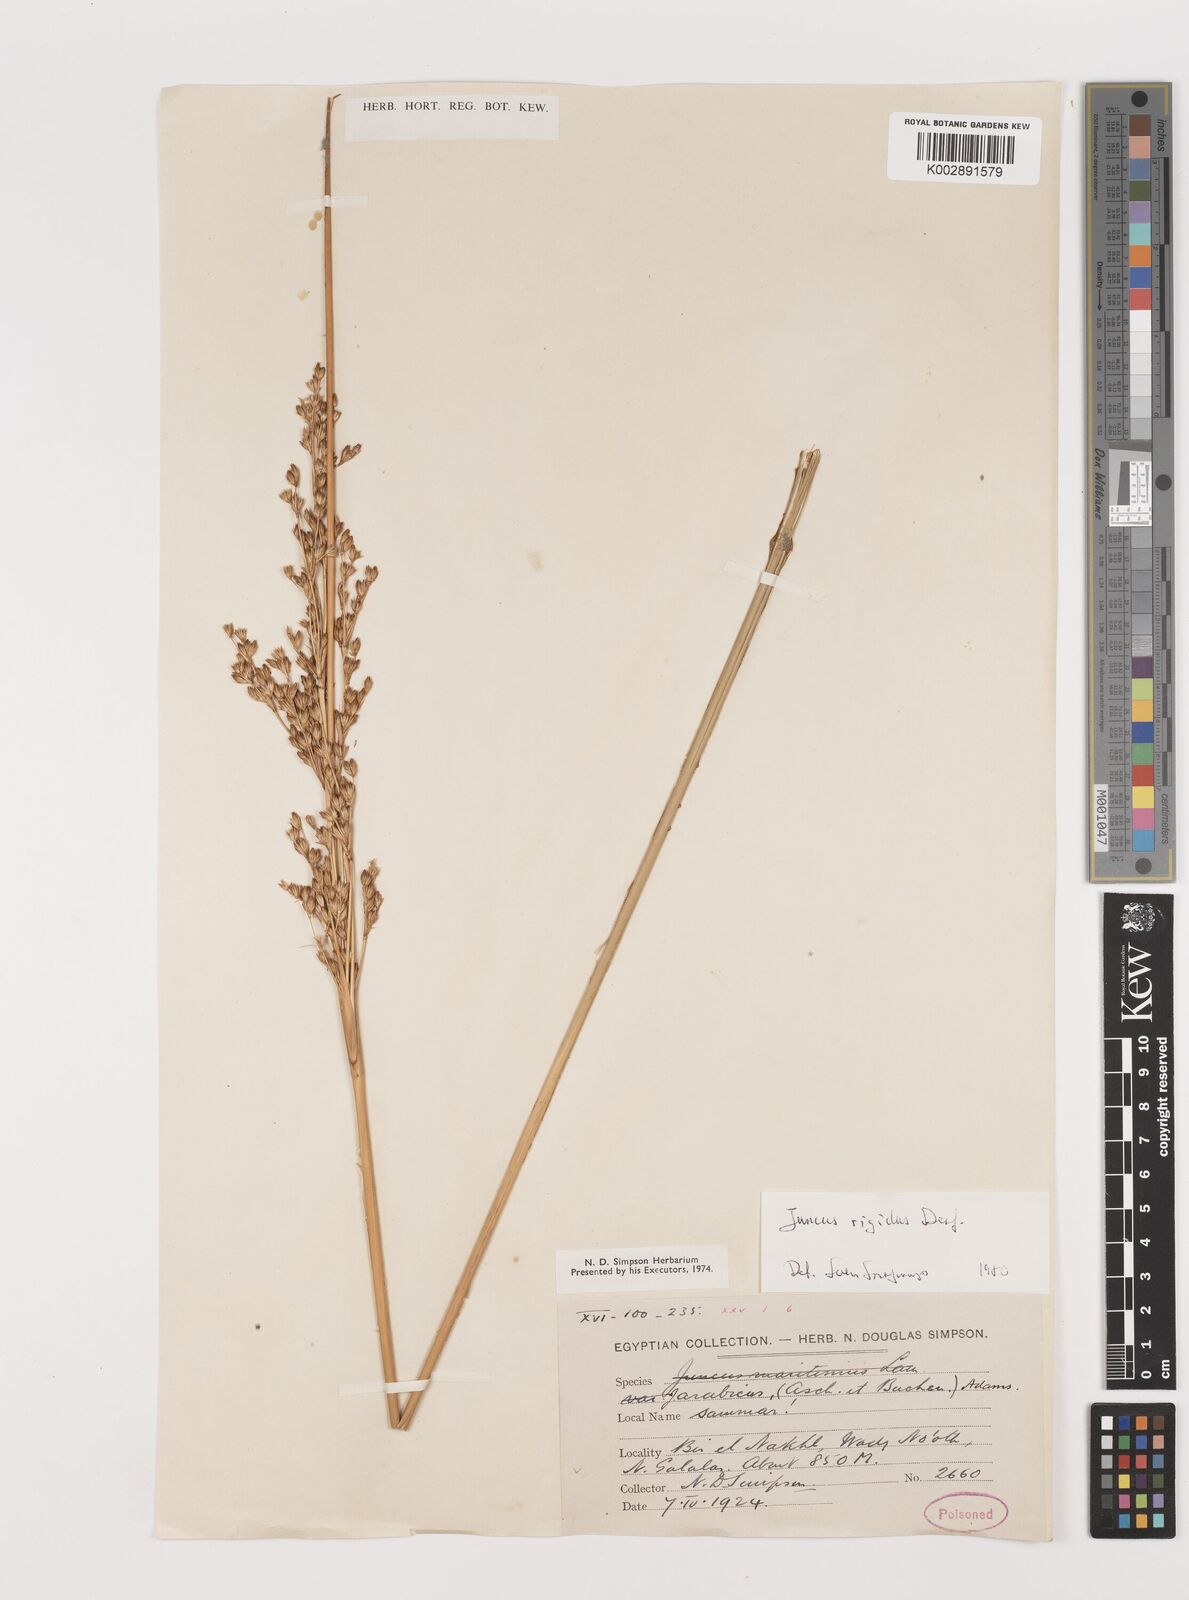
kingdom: Plantae
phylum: Tracheophyta
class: Liliopsida
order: Poales
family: Juncaceae
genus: Juncus
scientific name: Juncus rigidus
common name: Hard sea rush
